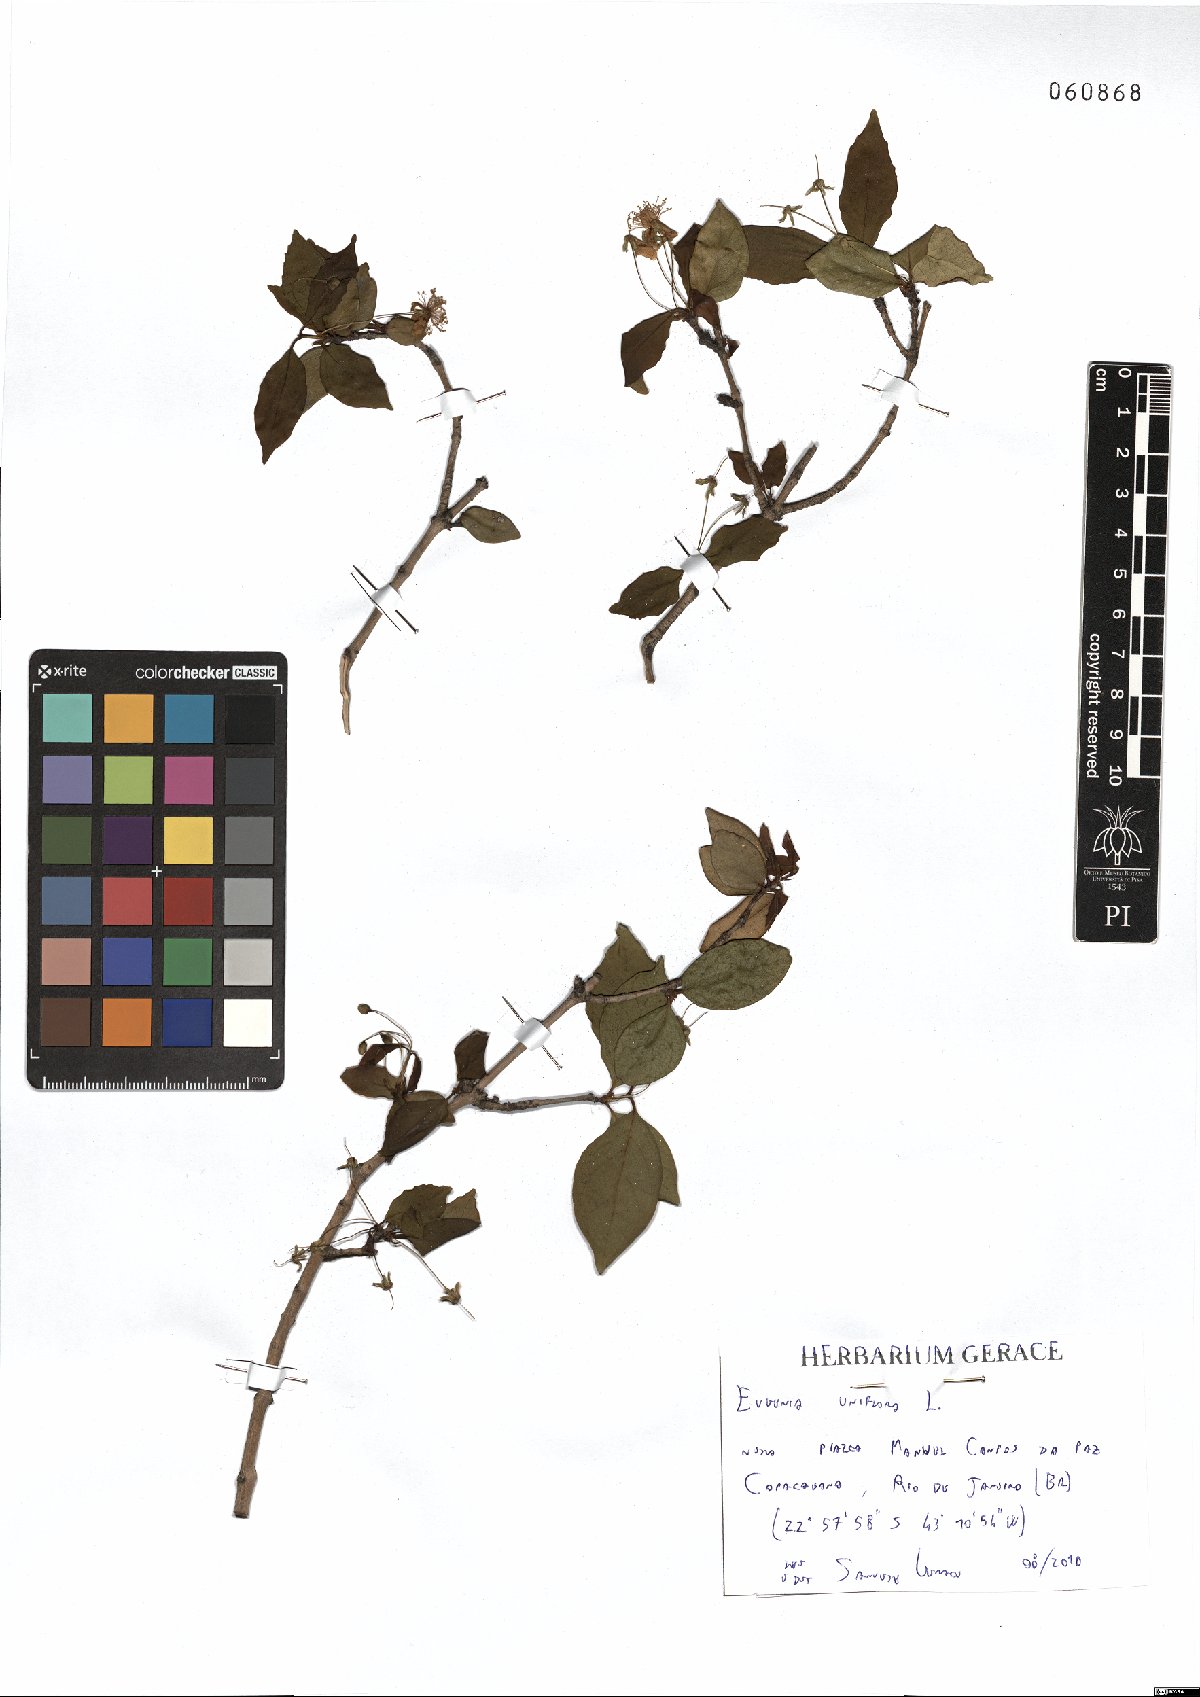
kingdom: Plantae
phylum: Tracheophyta
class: Magnoliopsida
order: Myrtales
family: Myrtaceae
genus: Eugenia
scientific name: Eugenia uniflora
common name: Surinam cherry
